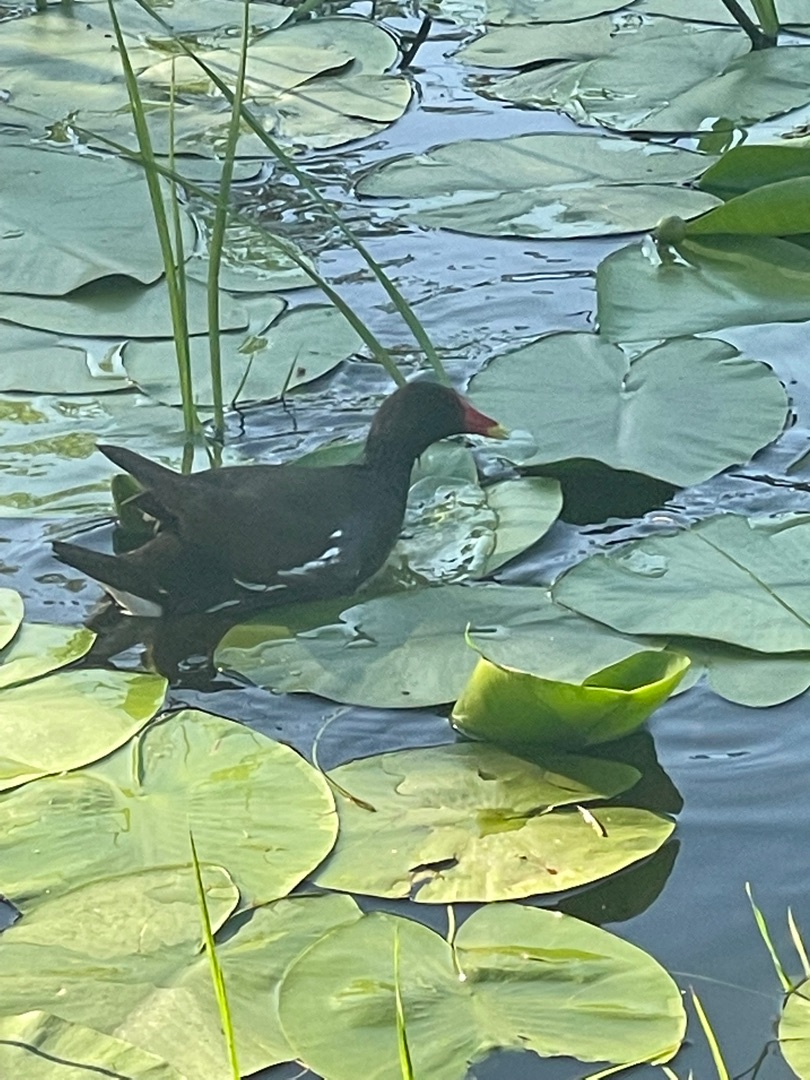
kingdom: Animalia
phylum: Chordata
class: Aves
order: Gruiformes
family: Rallidae
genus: Gallinula
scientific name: Gallinula chloropus
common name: Grønbenet rørhøne
